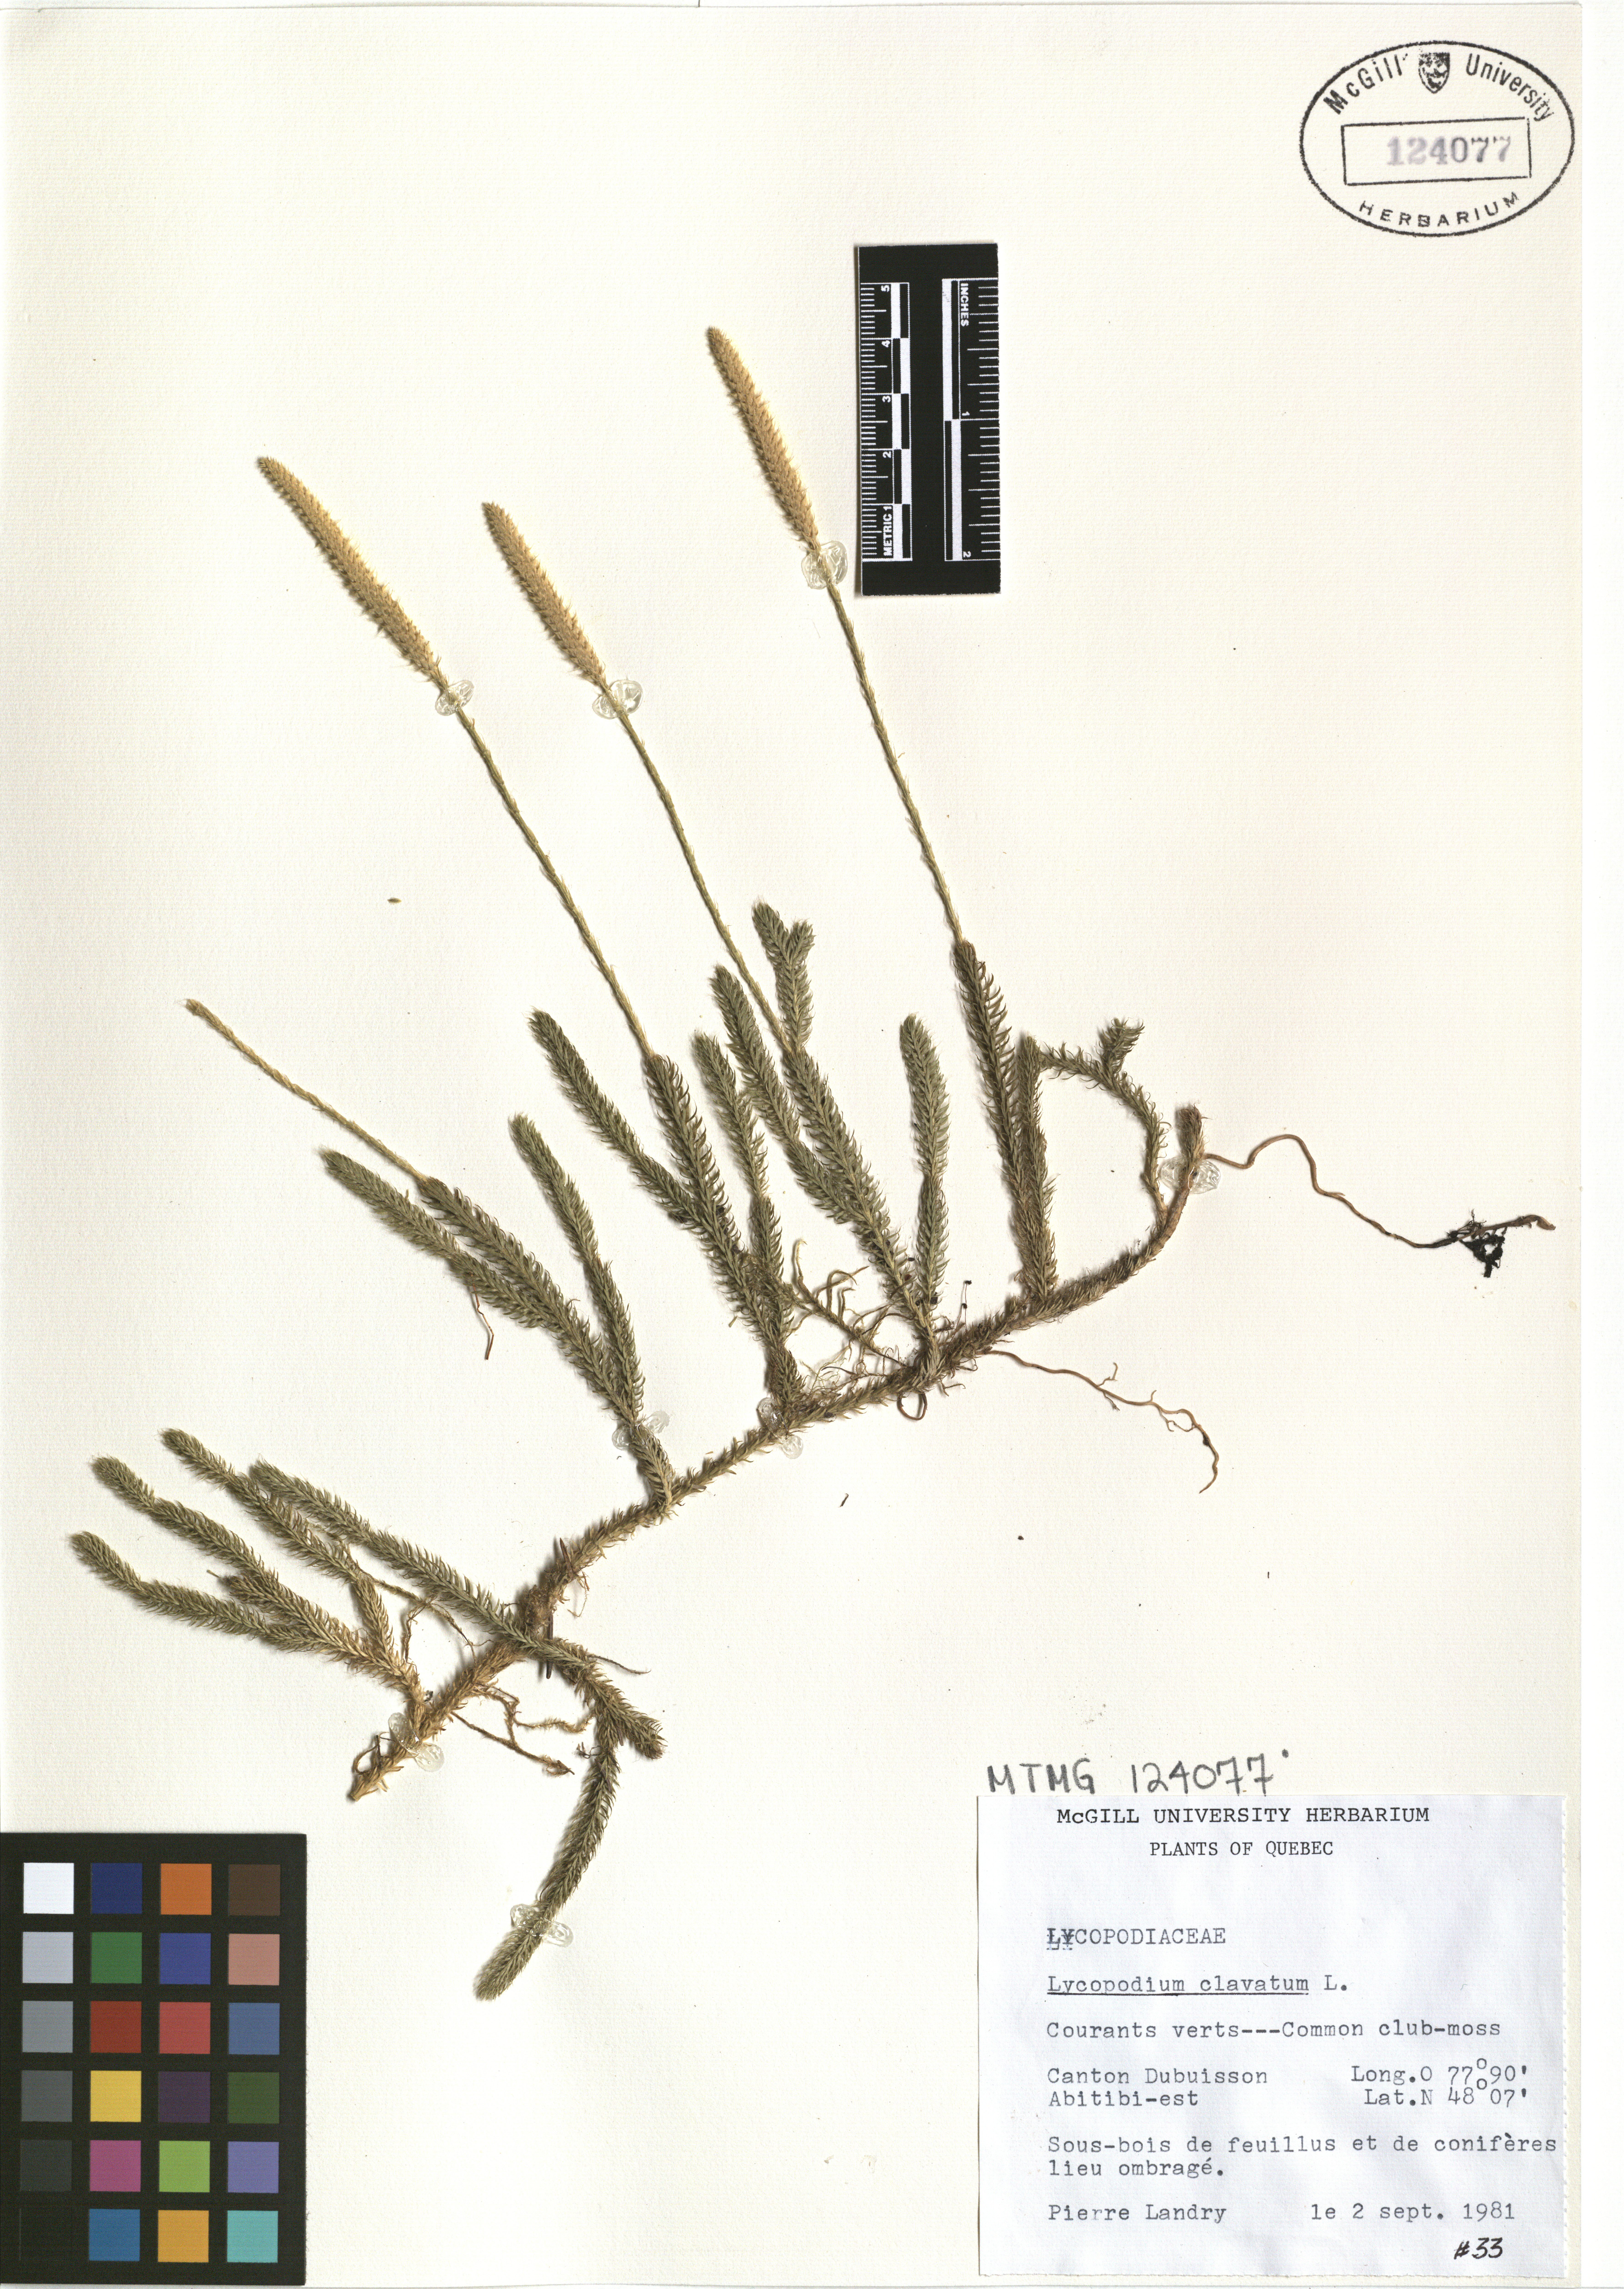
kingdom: Plantae
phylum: Tracheophyta
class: Lycopodiopsida
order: Lycopodiales
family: Lycopodiaceae
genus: Lycopodium
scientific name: Lycopodium clavatum
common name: Stag's-horn clubmoss
